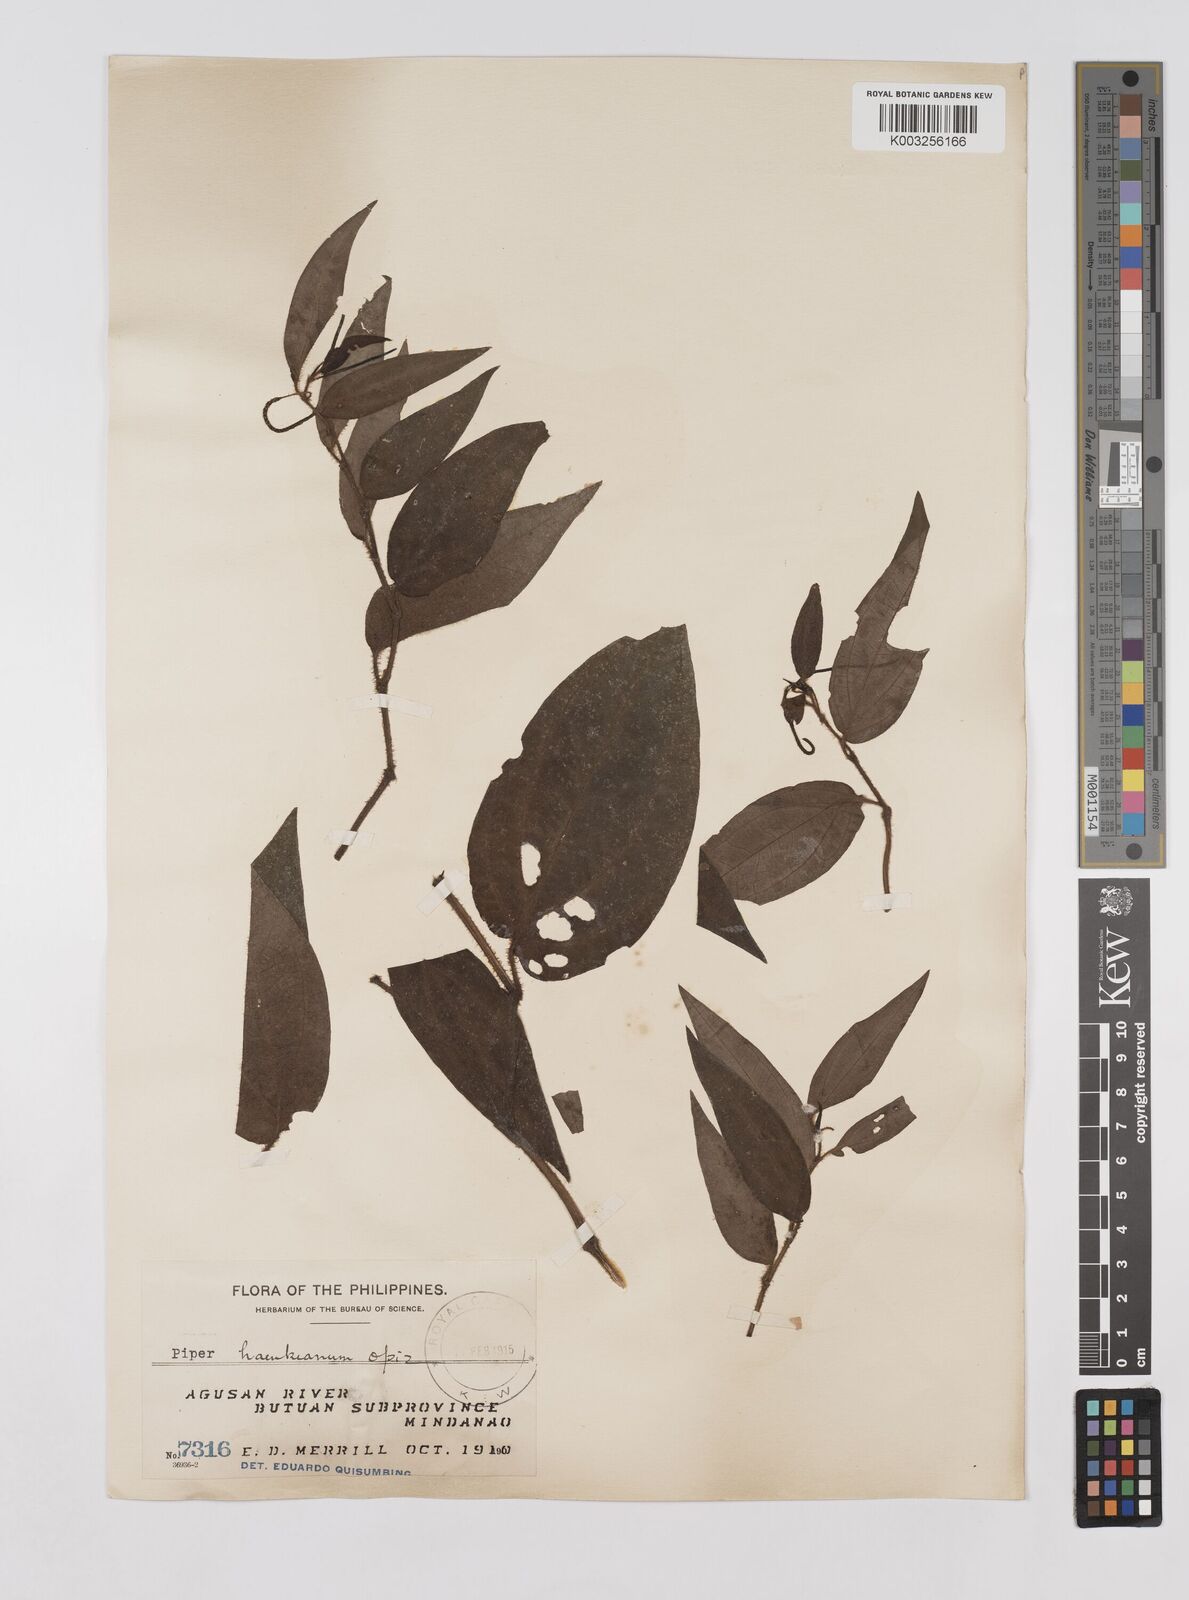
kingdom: Plantae
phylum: Tracheophyta
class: Magnoliopsida
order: Piperales
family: Piperaceae
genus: Piper
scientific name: Piper lanatum
